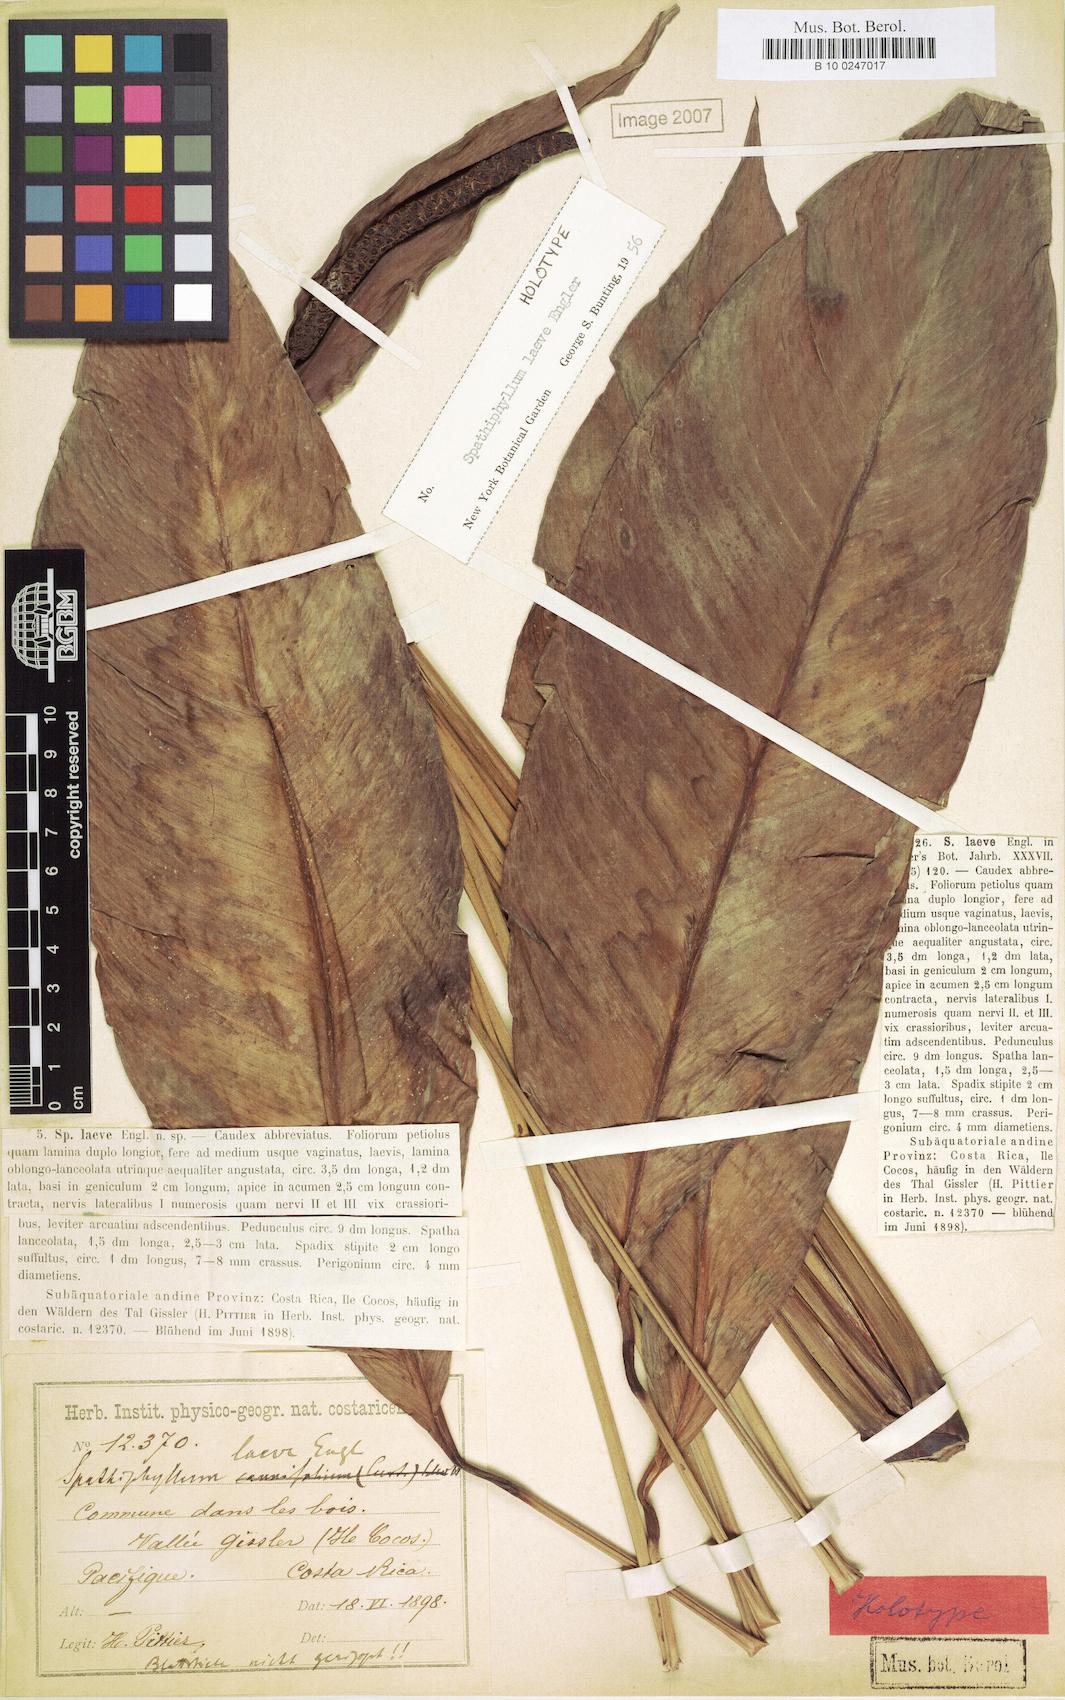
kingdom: Plantae
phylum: Tracheophyta
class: Liliopsida
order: Alismatales
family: Araceae
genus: Spathiphyllum
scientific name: Spathiphyllum laeve
